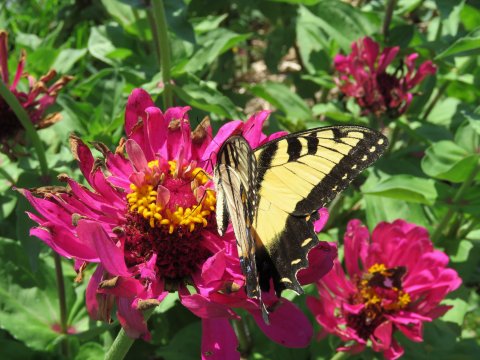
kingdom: Animalia
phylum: Arthropoda
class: Insecta
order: Lepidoptera
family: Papilionidae
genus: Pterourus
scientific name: Pterourus glaucus
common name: Eastern Tiger Swallowtail
